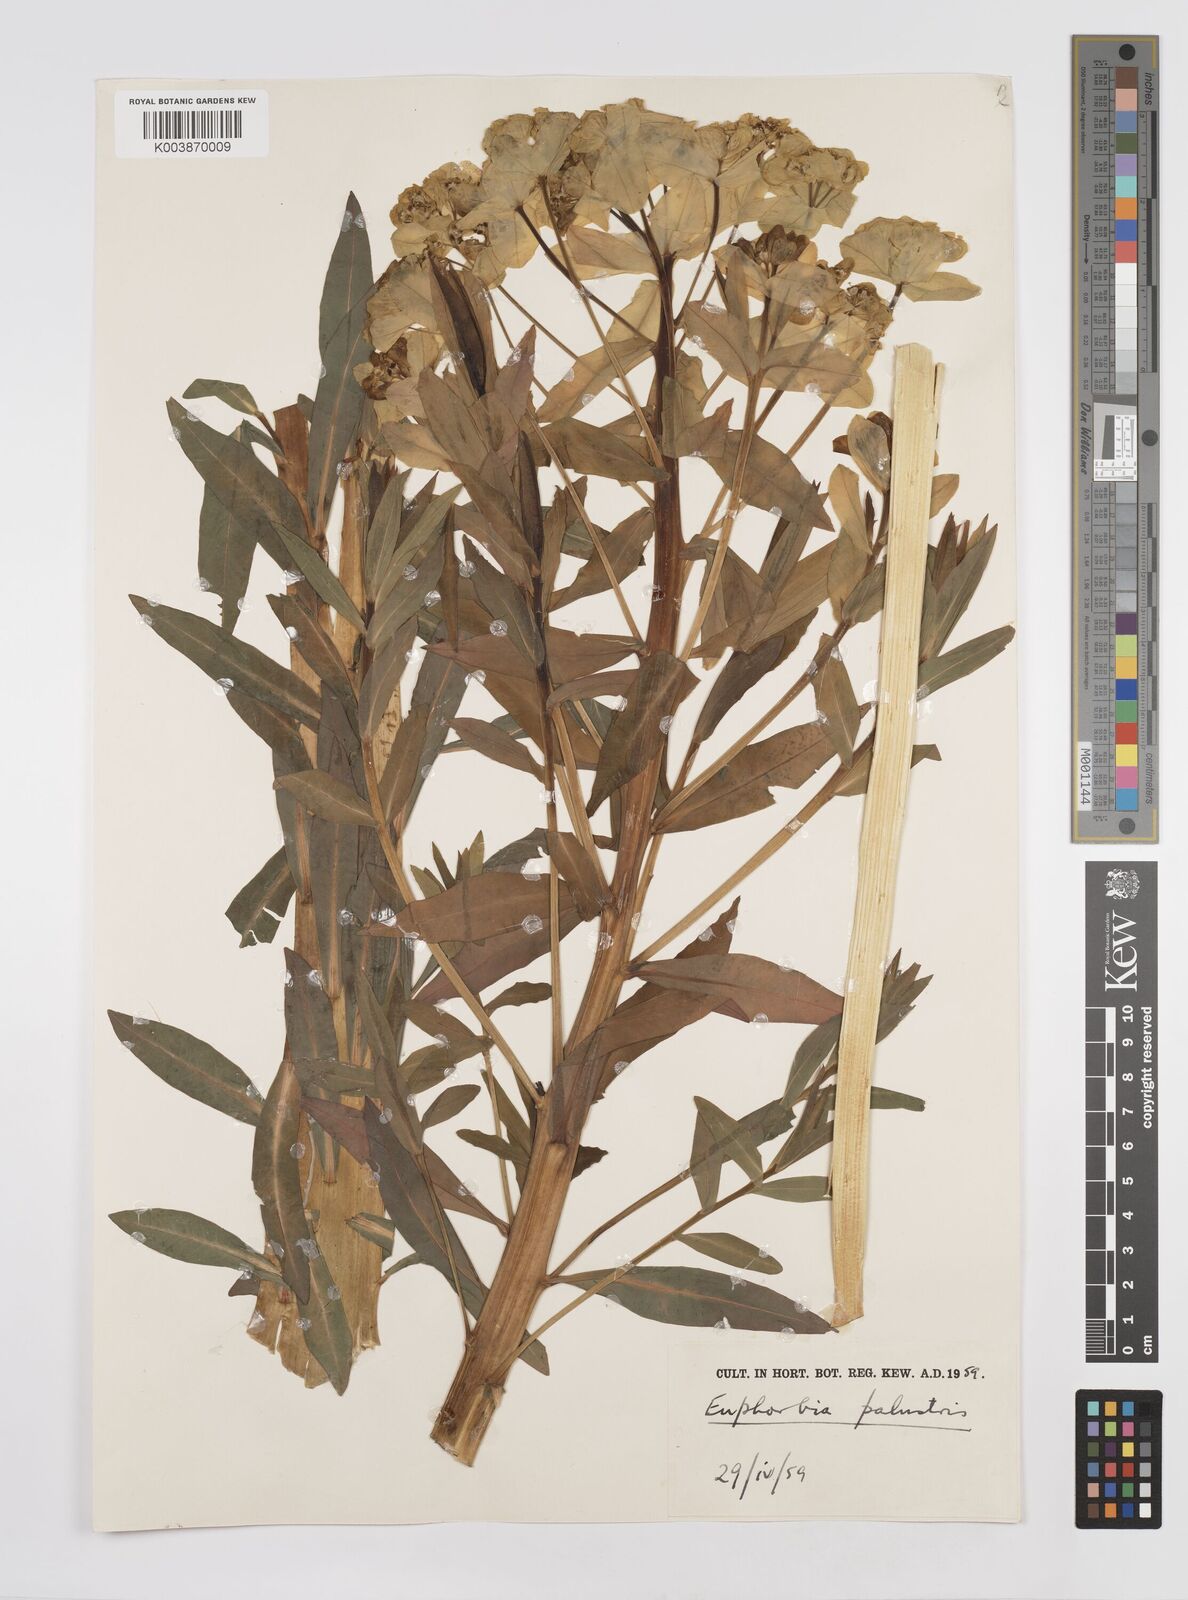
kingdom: Plantae
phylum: Tracheophyta
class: Magnoliopsida
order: Malpighiales
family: Euphorbiaceae
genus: Euphorbia
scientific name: Euphorbia palustris
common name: Marsh spurge
